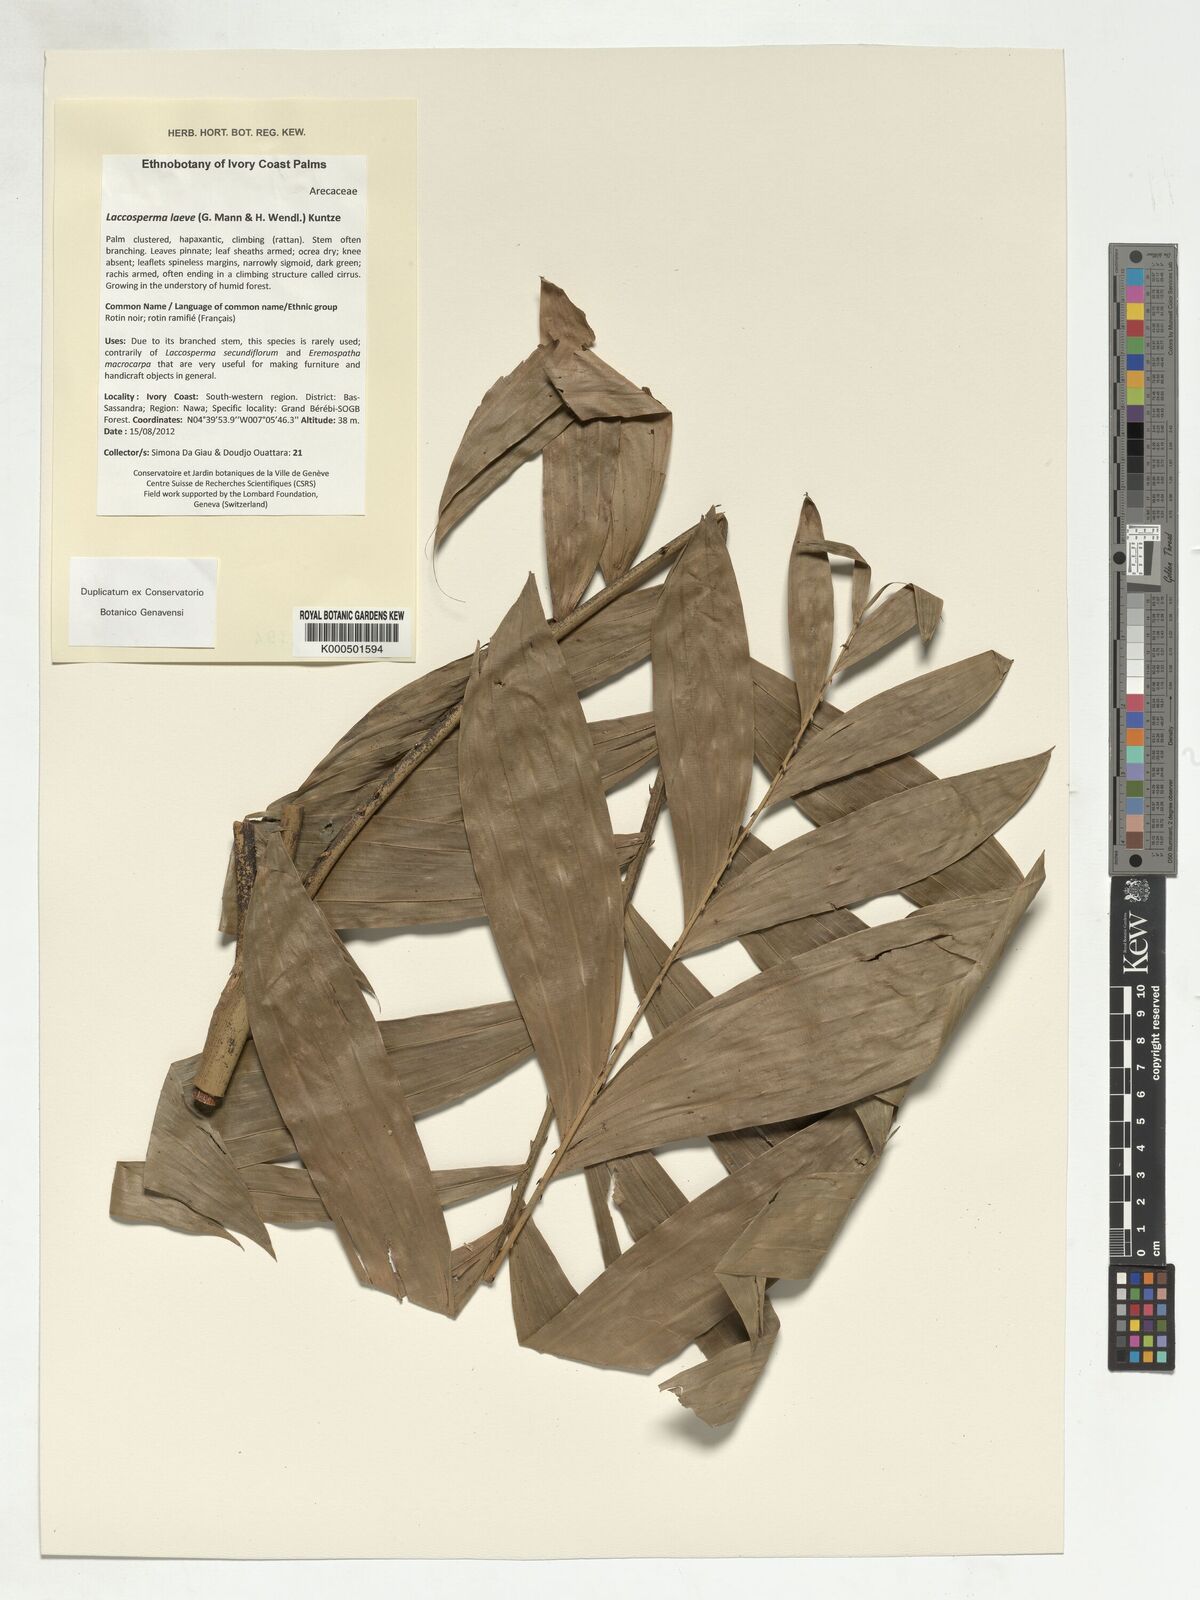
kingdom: Plantae
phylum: Tracheophyta
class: Liliopsida
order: Arecales
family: Arecaceae
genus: Laccosperma
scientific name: Laccosperma laeve
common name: Rattan
